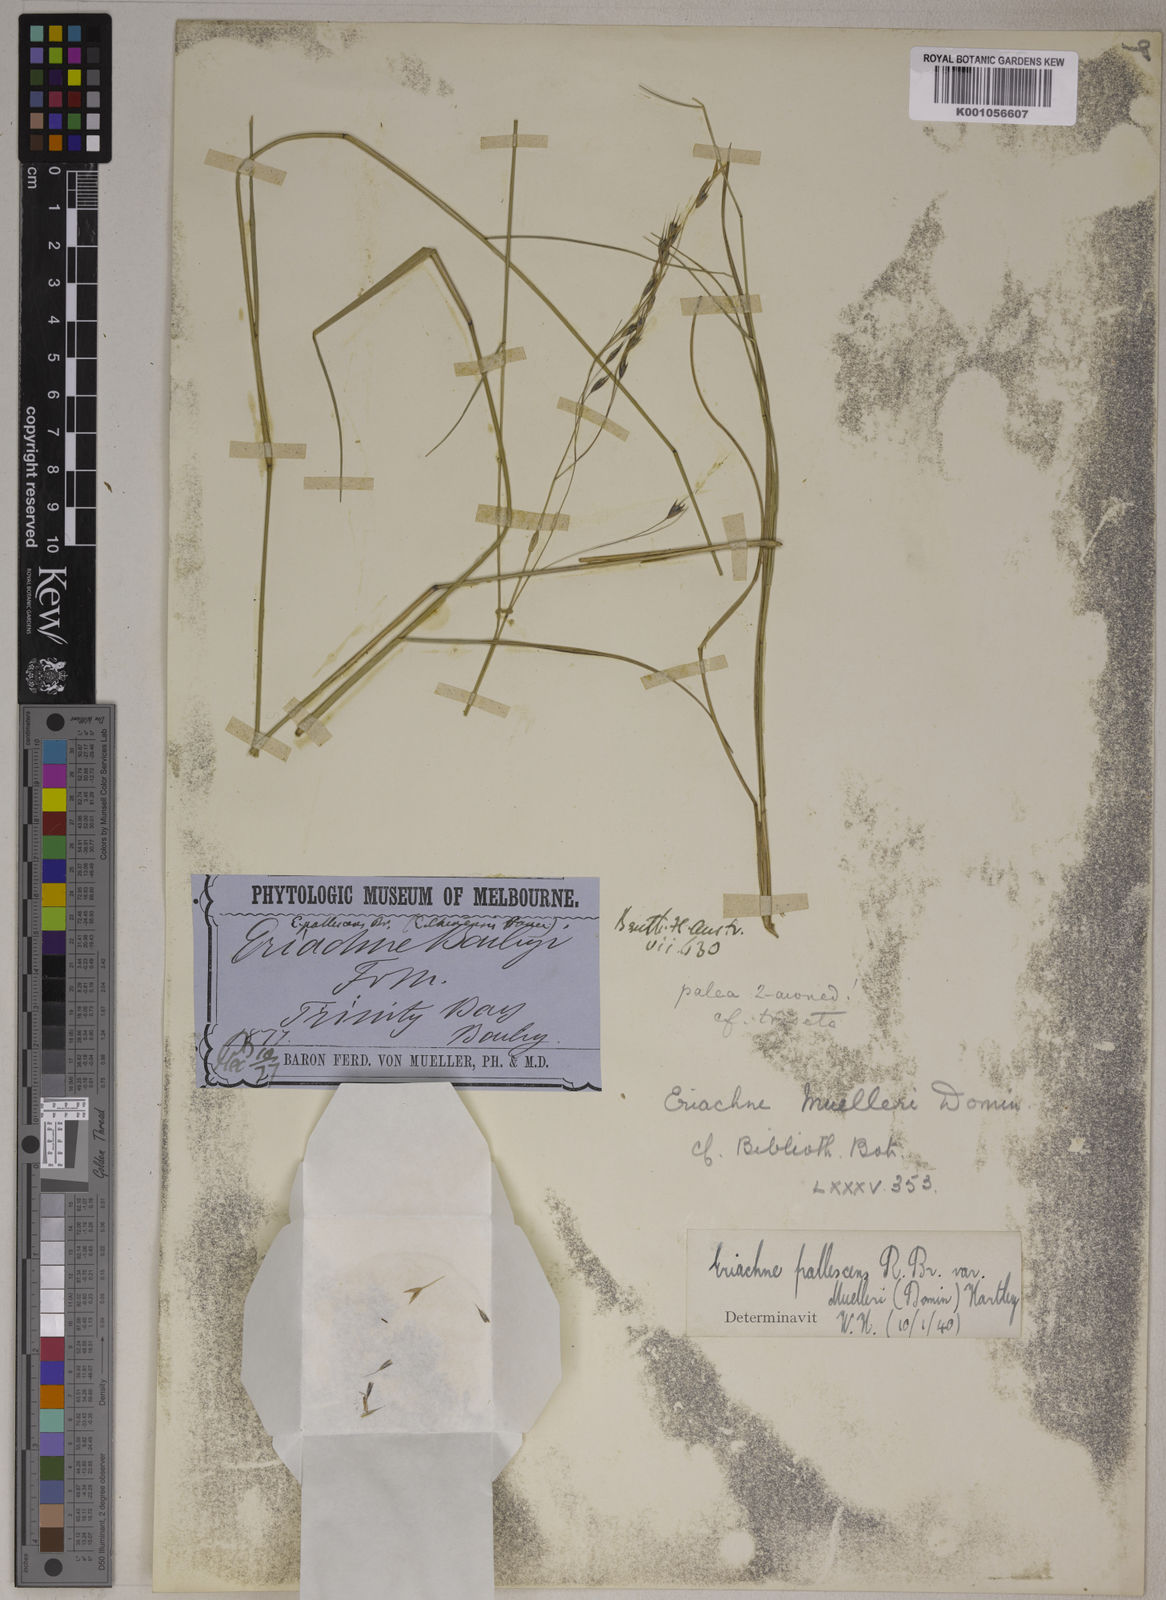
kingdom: Plantae
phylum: Tracheophyta
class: Liliopsida
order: Poales
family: Poaceae
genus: Eriachne
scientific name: Eriachne pallescens
